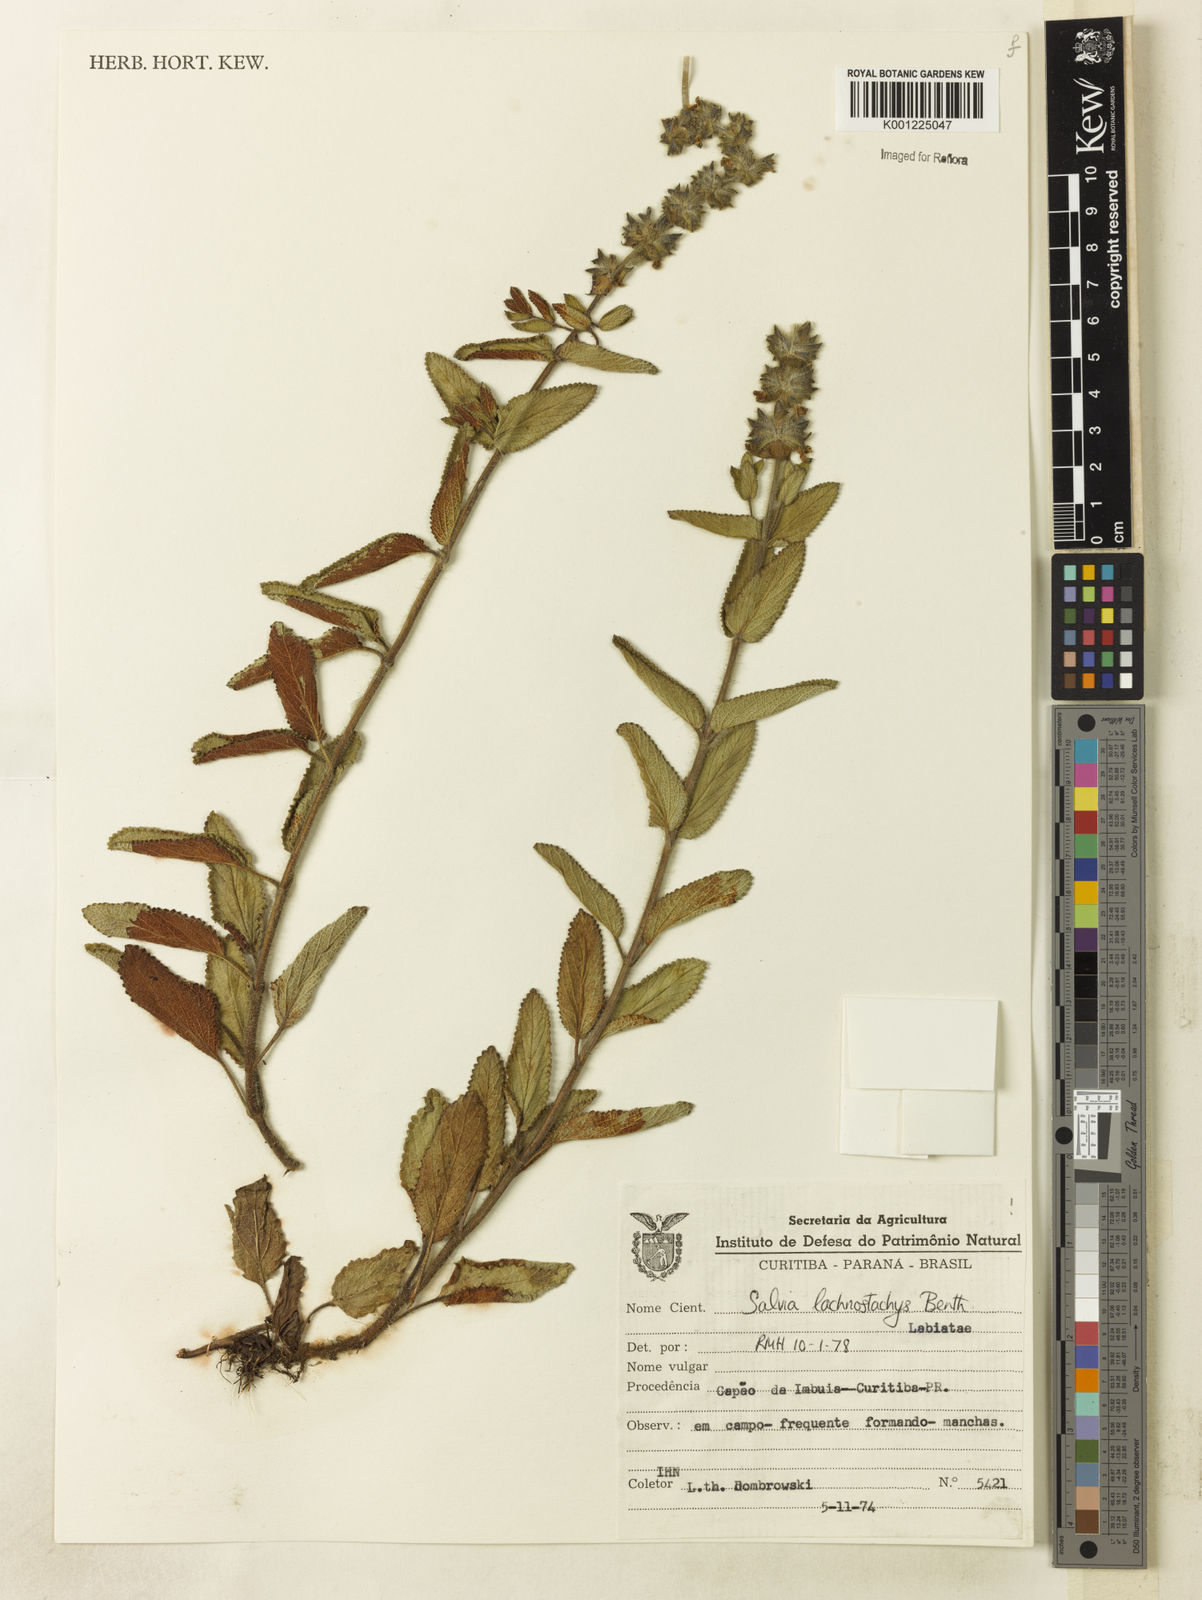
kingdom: Plantae
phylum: Tracheophyta
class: Magnoliopsida
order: Lamiales
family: Lamiaceae
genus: Salvia
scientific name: Salvia lachnostachys
